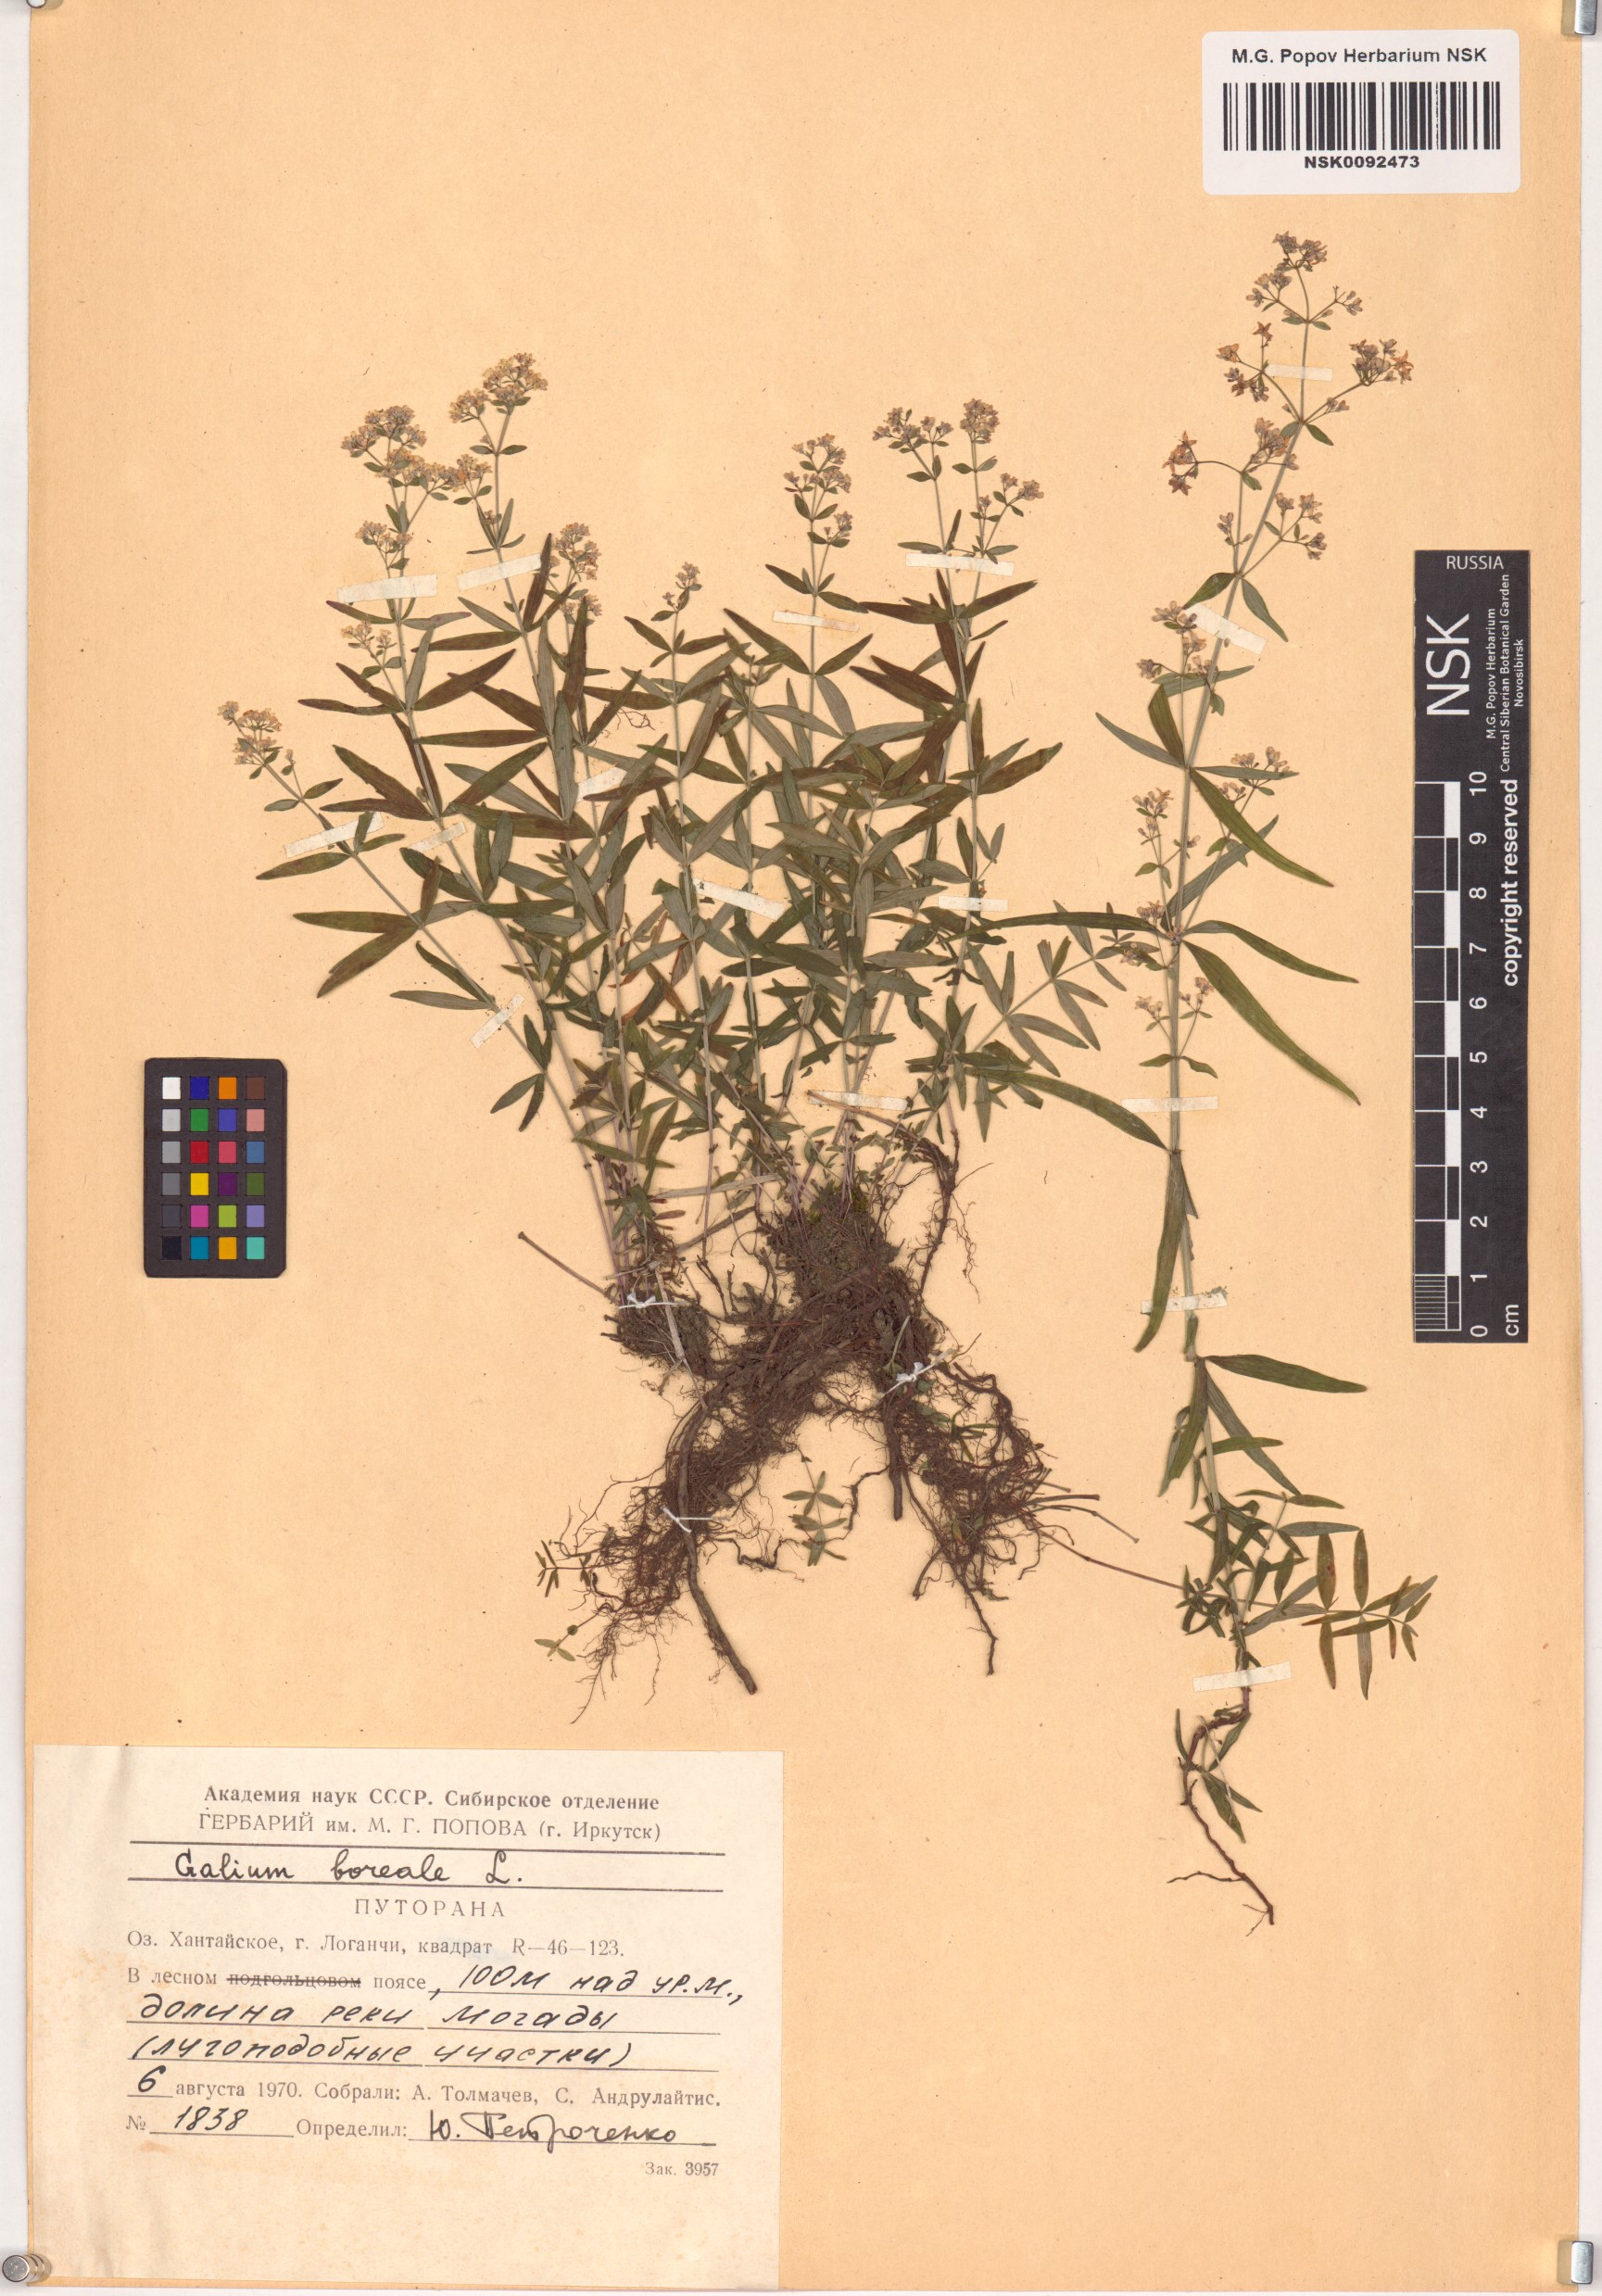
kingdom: Plantae
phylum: Tracheophyta
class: Magnoliopsida
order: Gentianales
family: Rubiaceae
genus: Galium
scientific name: Galium boreale
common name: Northern bedstraw
